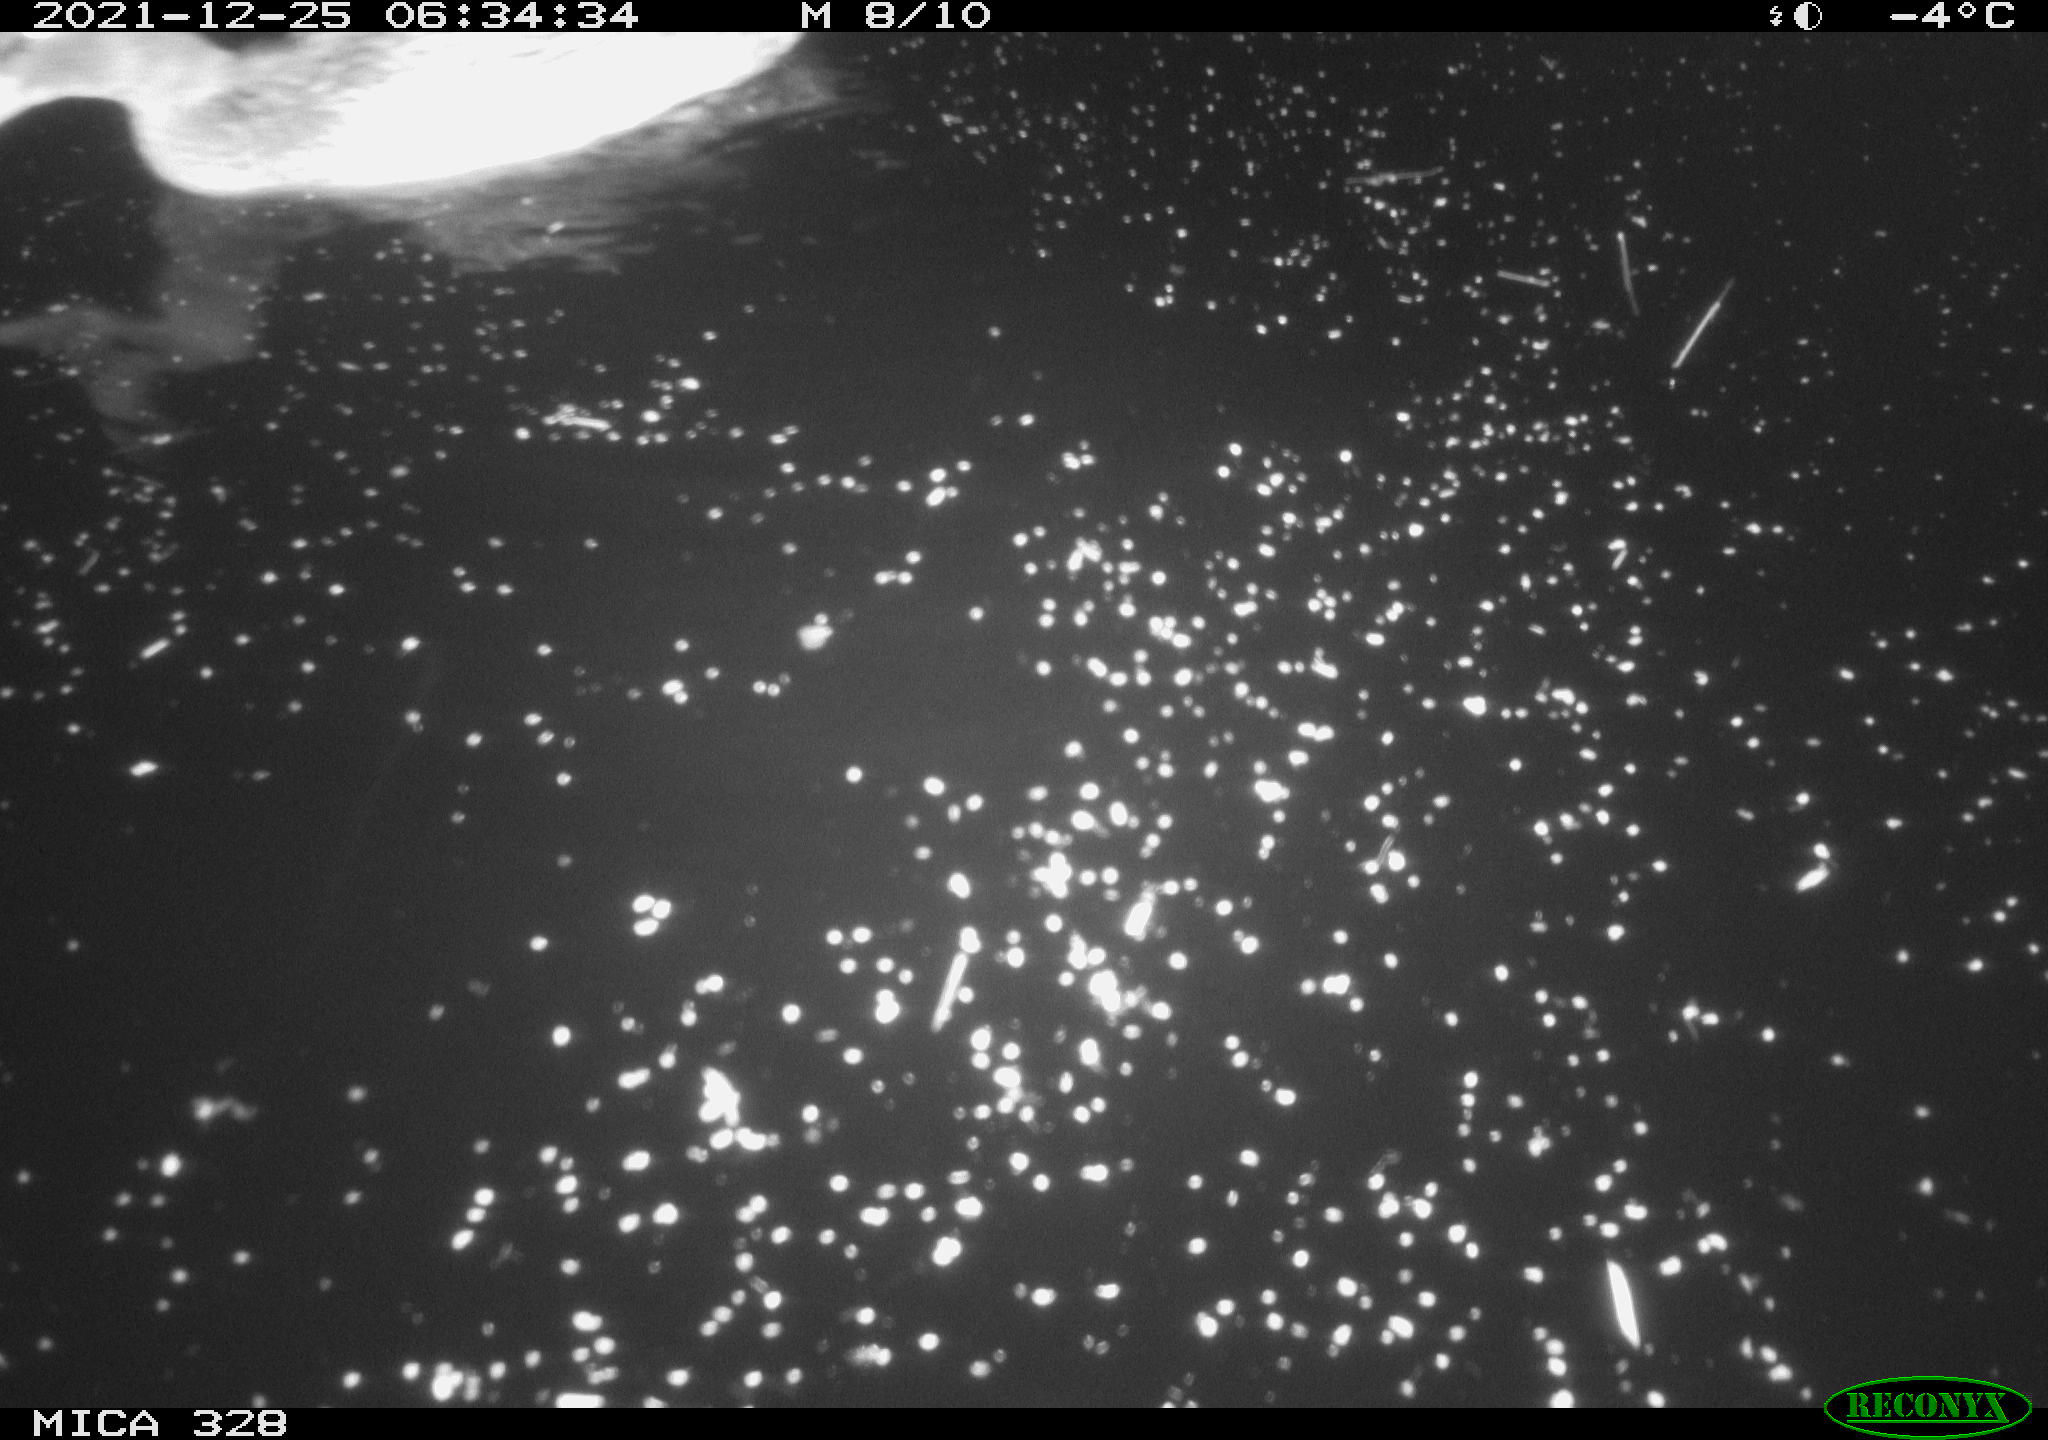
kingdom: Animalia
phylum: Chordata
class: Aves
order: Anseriformes
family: Anatidae
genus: Anas
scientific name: Anas platyrhynchos
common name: Mallard
